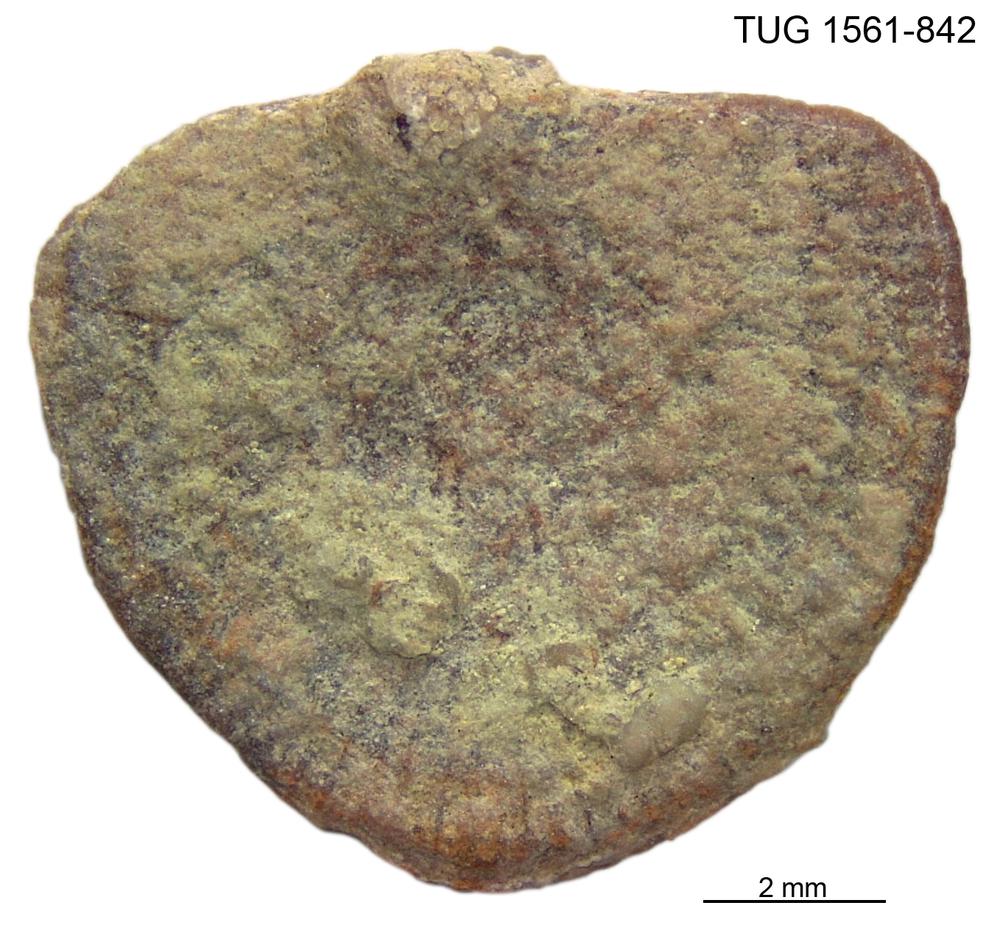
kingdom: Animalia
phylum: Brachiopoda
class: Rhynchonellata
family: Dalmanellidae
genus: Visbyella
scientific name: Visbyella Orthis visbyensis
